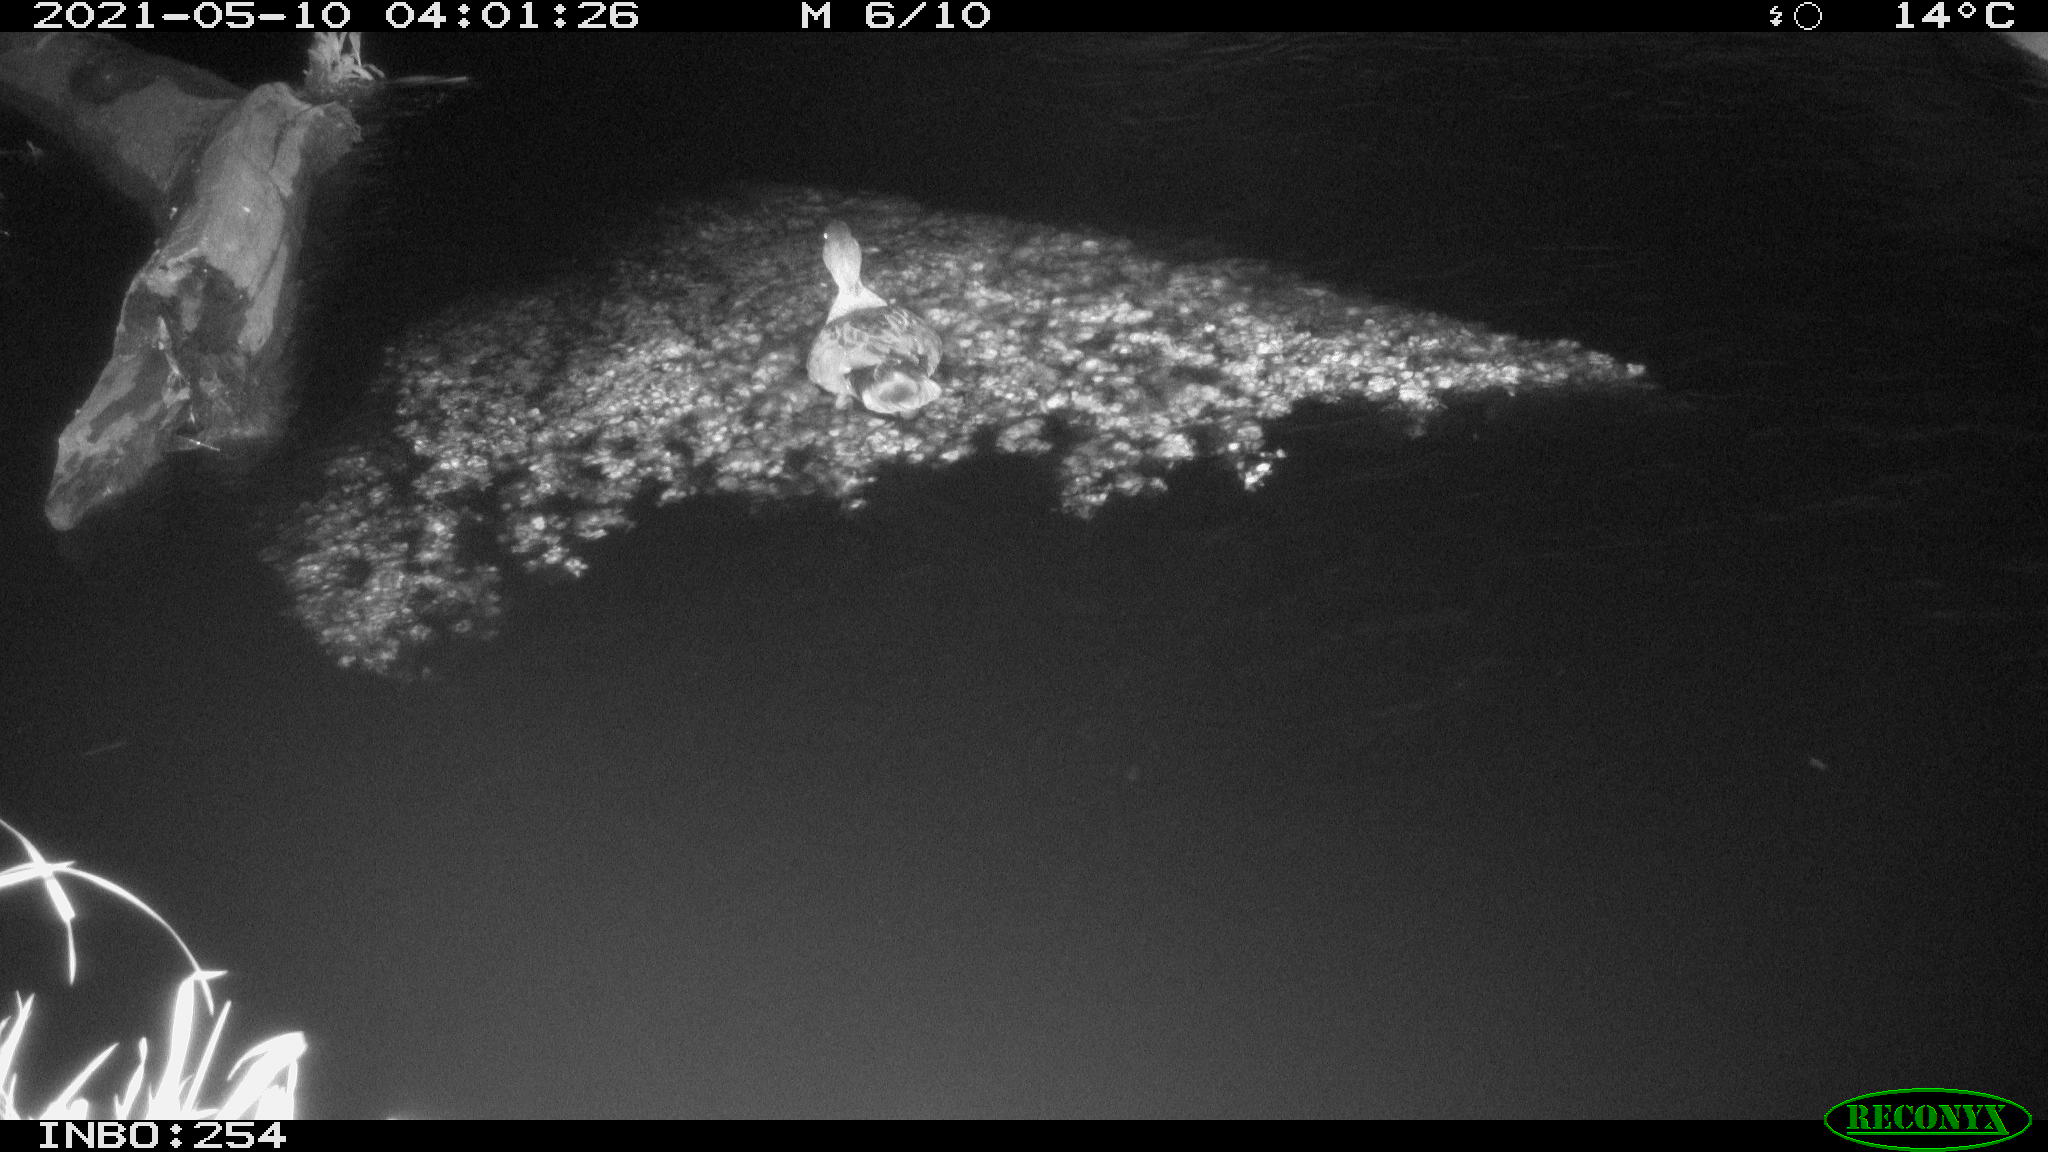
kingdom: Animalia
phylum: Chordata
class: Aves
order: Anseriformes
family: Anatidae
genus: Anas
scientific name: Anas platyrhynchos
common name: Mallard
